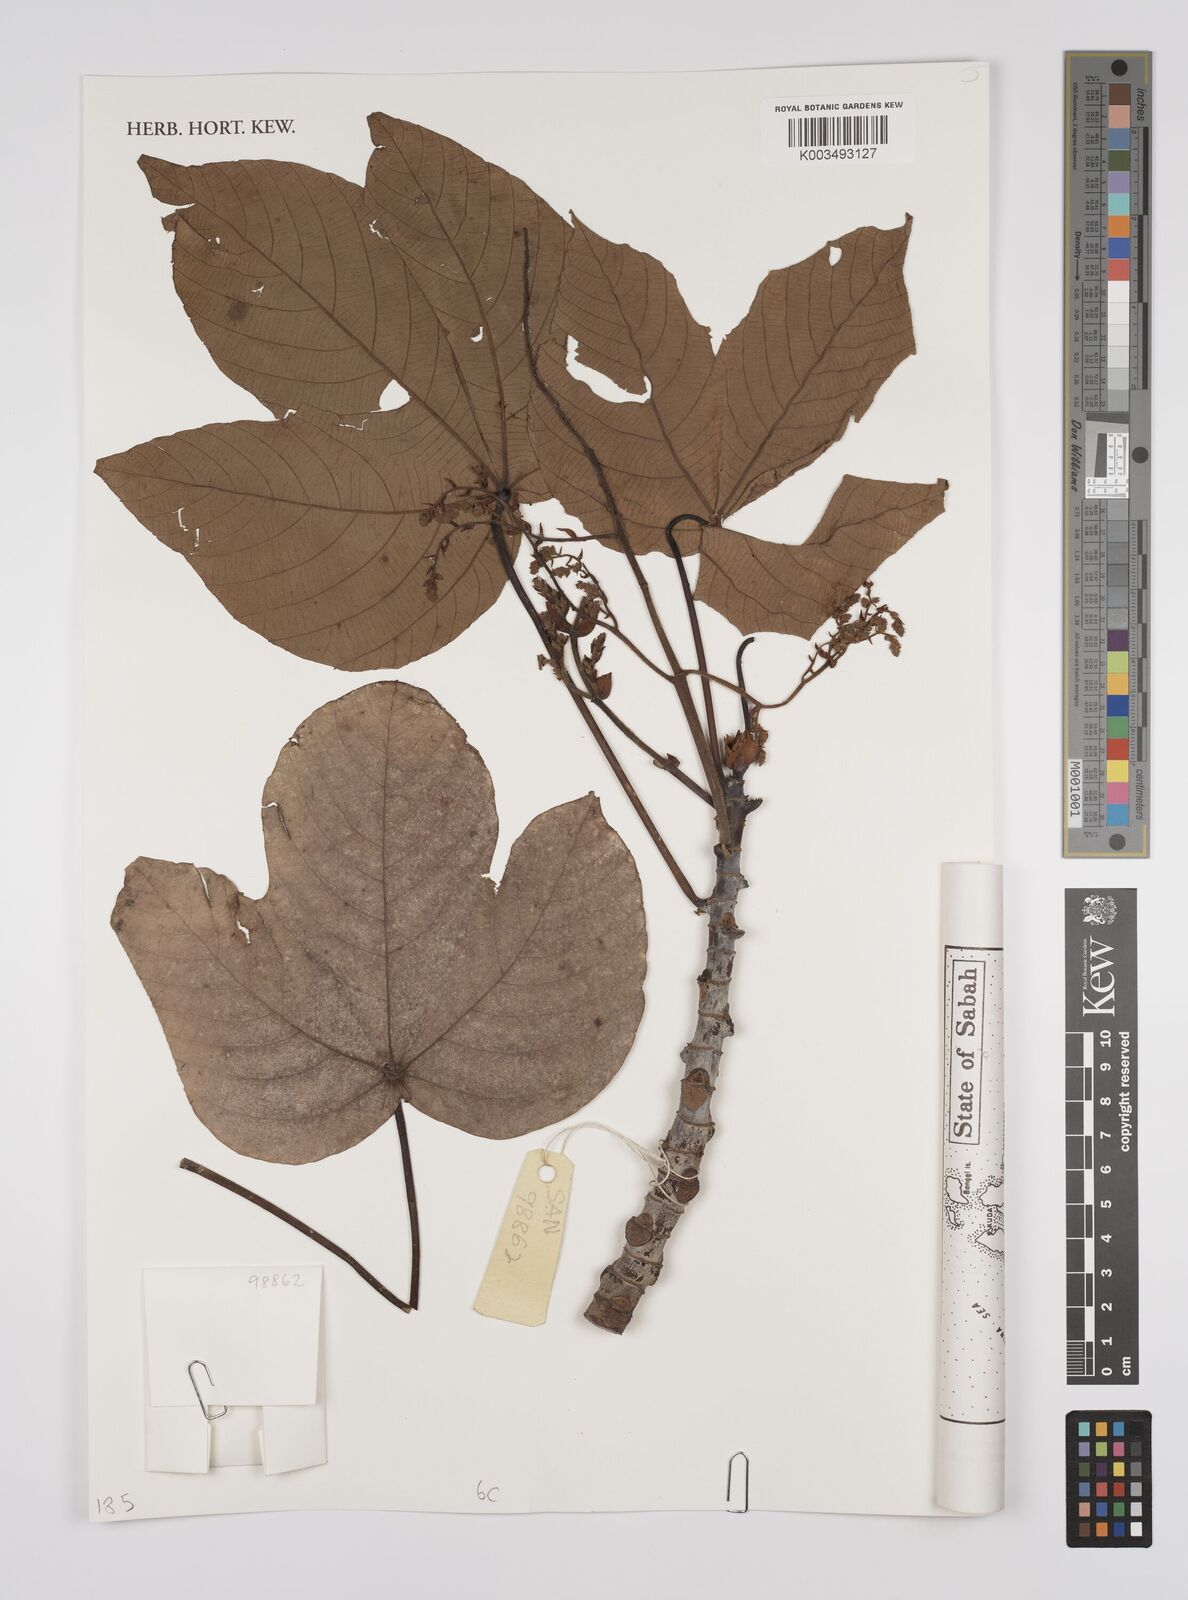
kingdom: Plantae
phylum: Tracheophyta
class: Magnoliopsida
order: Malpighiales
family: Euphorbiaceae
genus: Macaranga
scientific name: Macaranga hypoleuca
